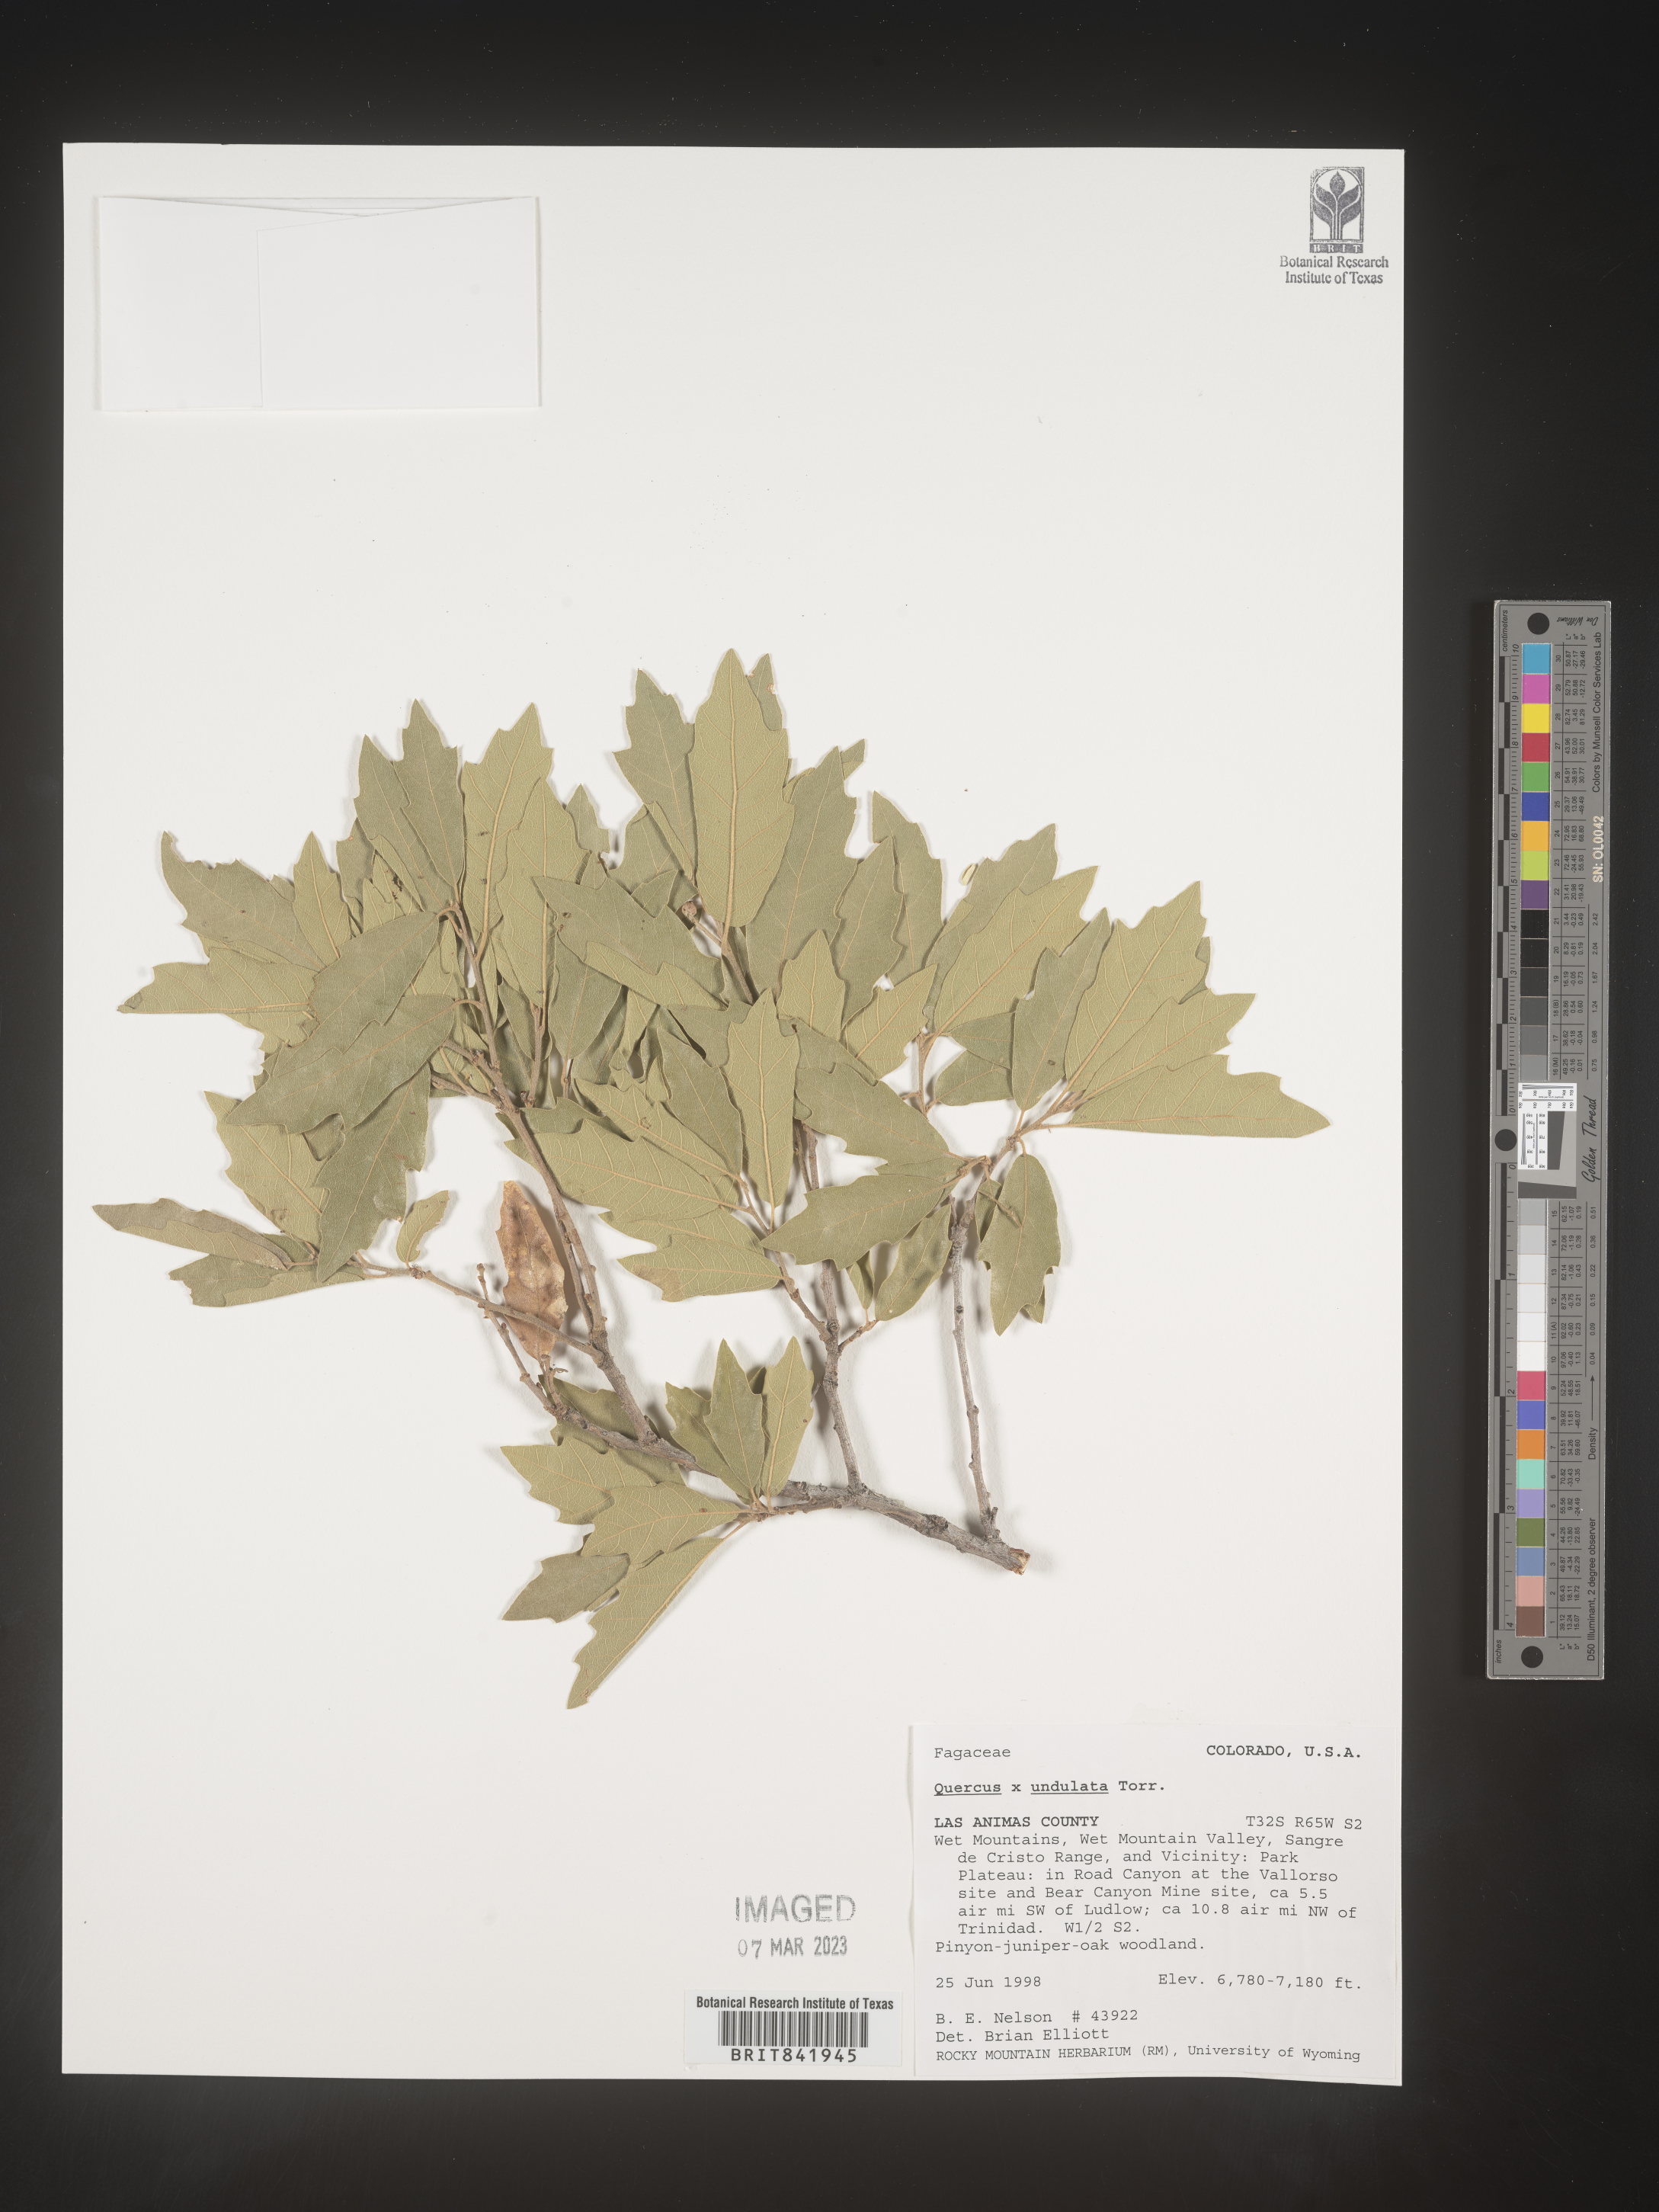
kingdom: Plantae
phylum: Tracheophyta
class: Magnoliopsida
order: Fagales
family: Fagaceae
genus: Quercus
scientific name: Quercus undulata
